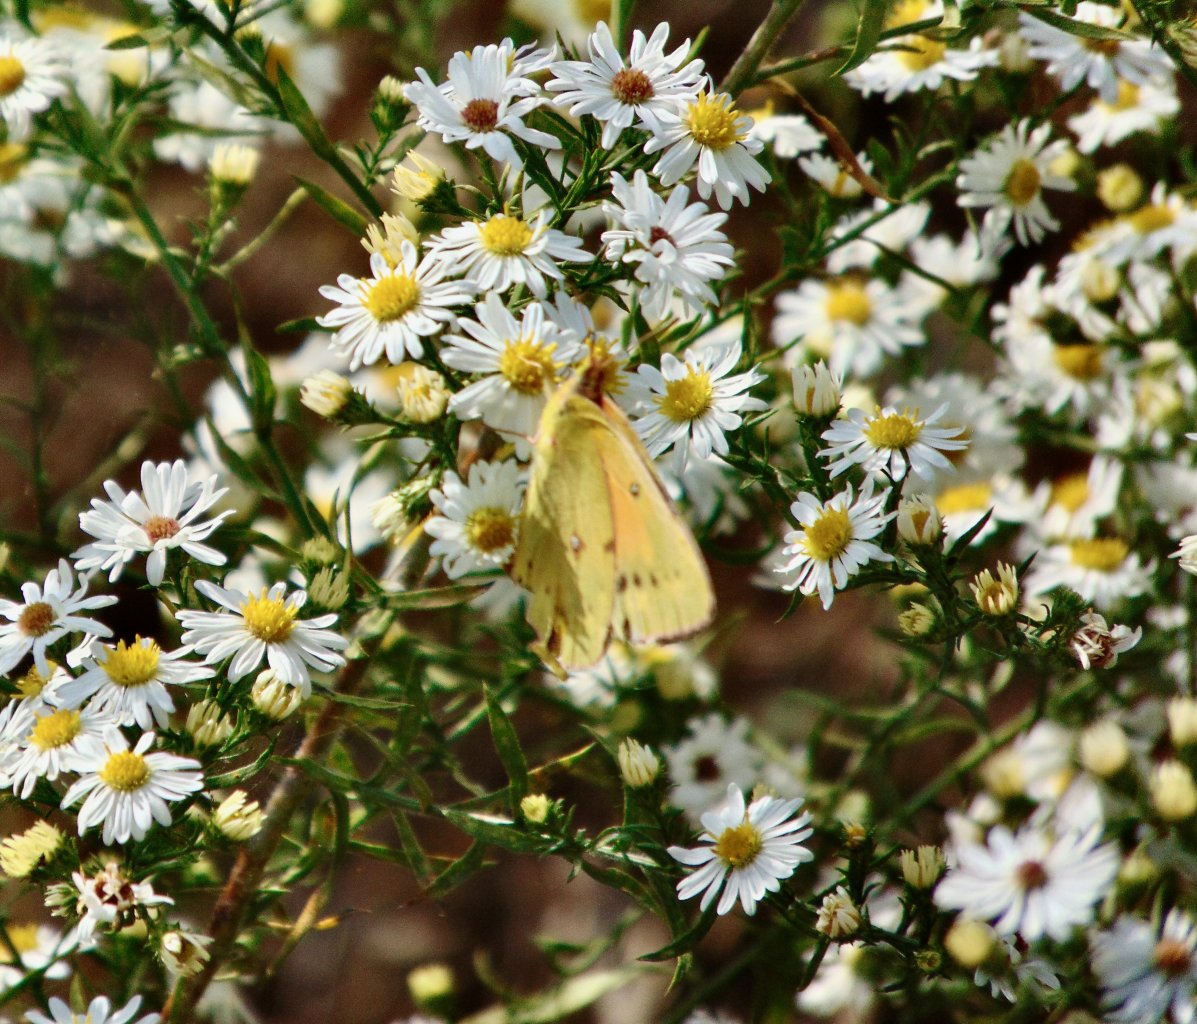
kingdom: Animalia
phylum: Arthropoda
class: Insecta
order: Lepidoptera
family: Pieridae
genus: Colias
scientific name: Colias eurytheme
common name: Orange Sulphur
